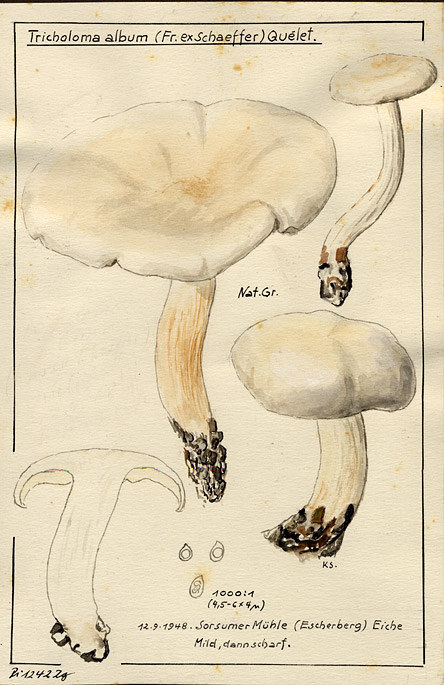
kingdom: Fungi
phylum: Basidiomycota
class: Agaricomycetes
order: Agaricales
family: Tricholomataceae
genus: Tricholoma
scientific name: Tricholoma album
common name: White knight
